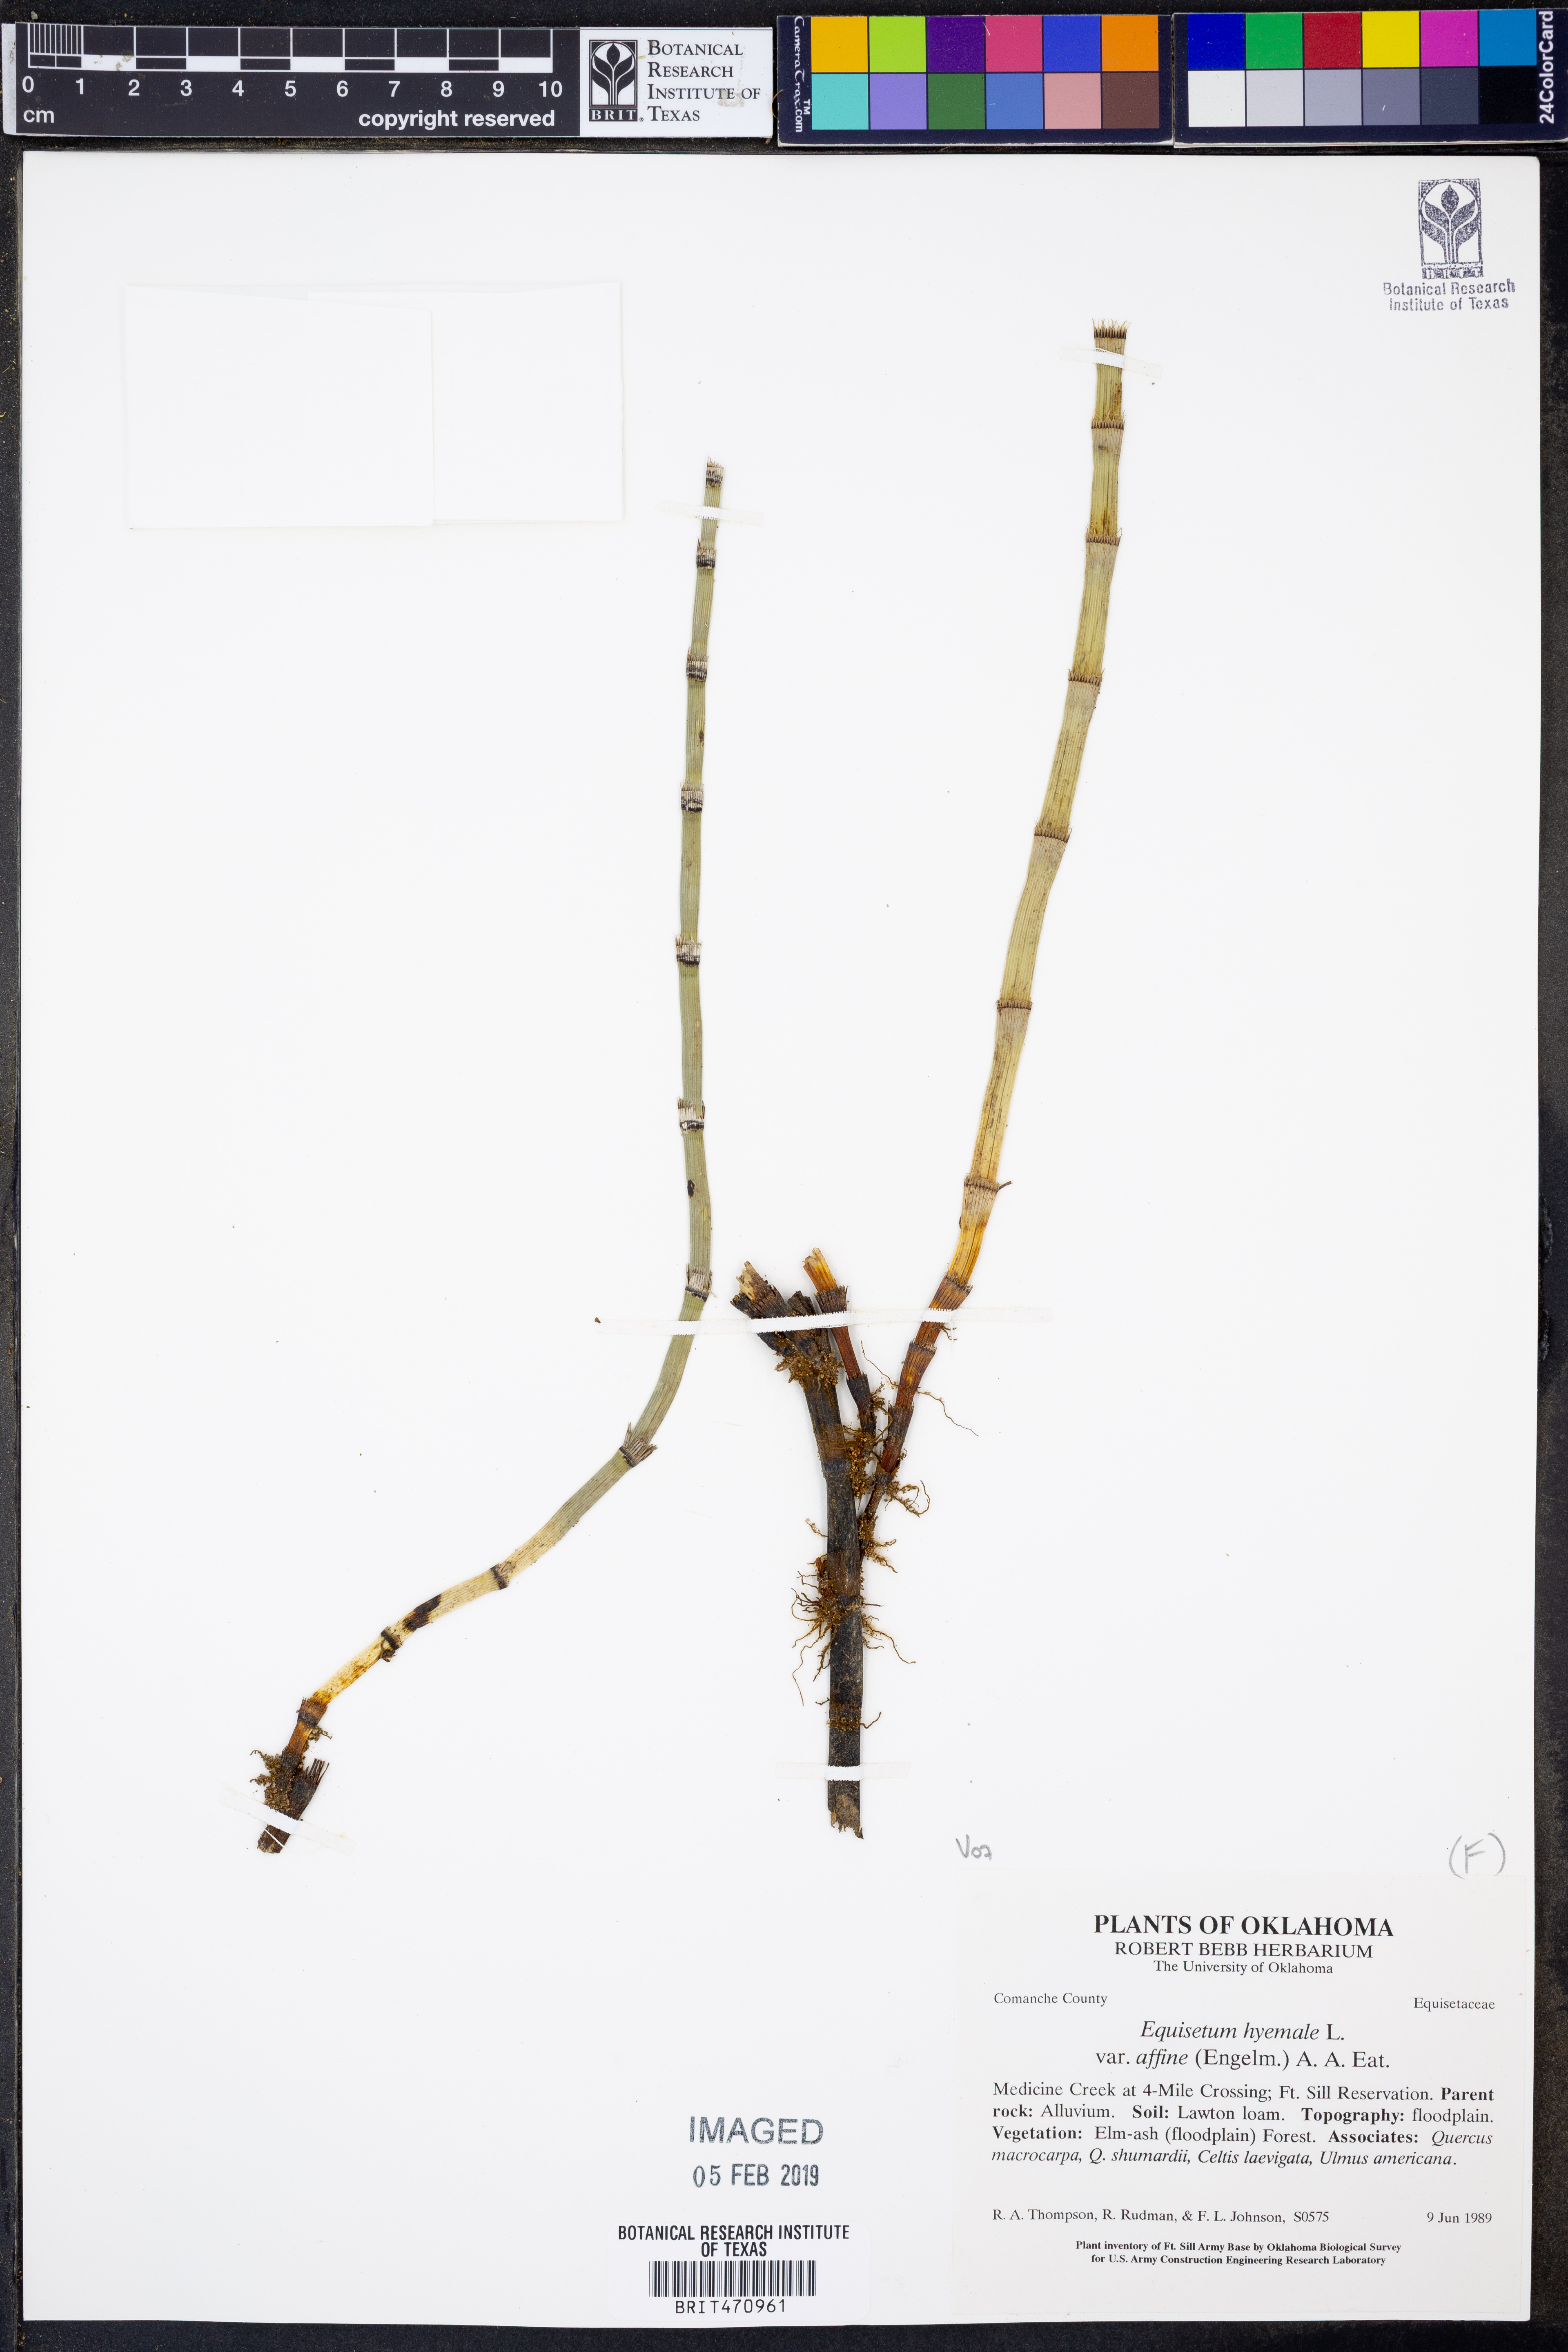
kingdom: Plantae
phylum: Tracheophyta
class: Polypodiopsida
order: Equisetales
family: Equisetaceae
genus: Equisetum
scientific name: Equisetum praealtum
